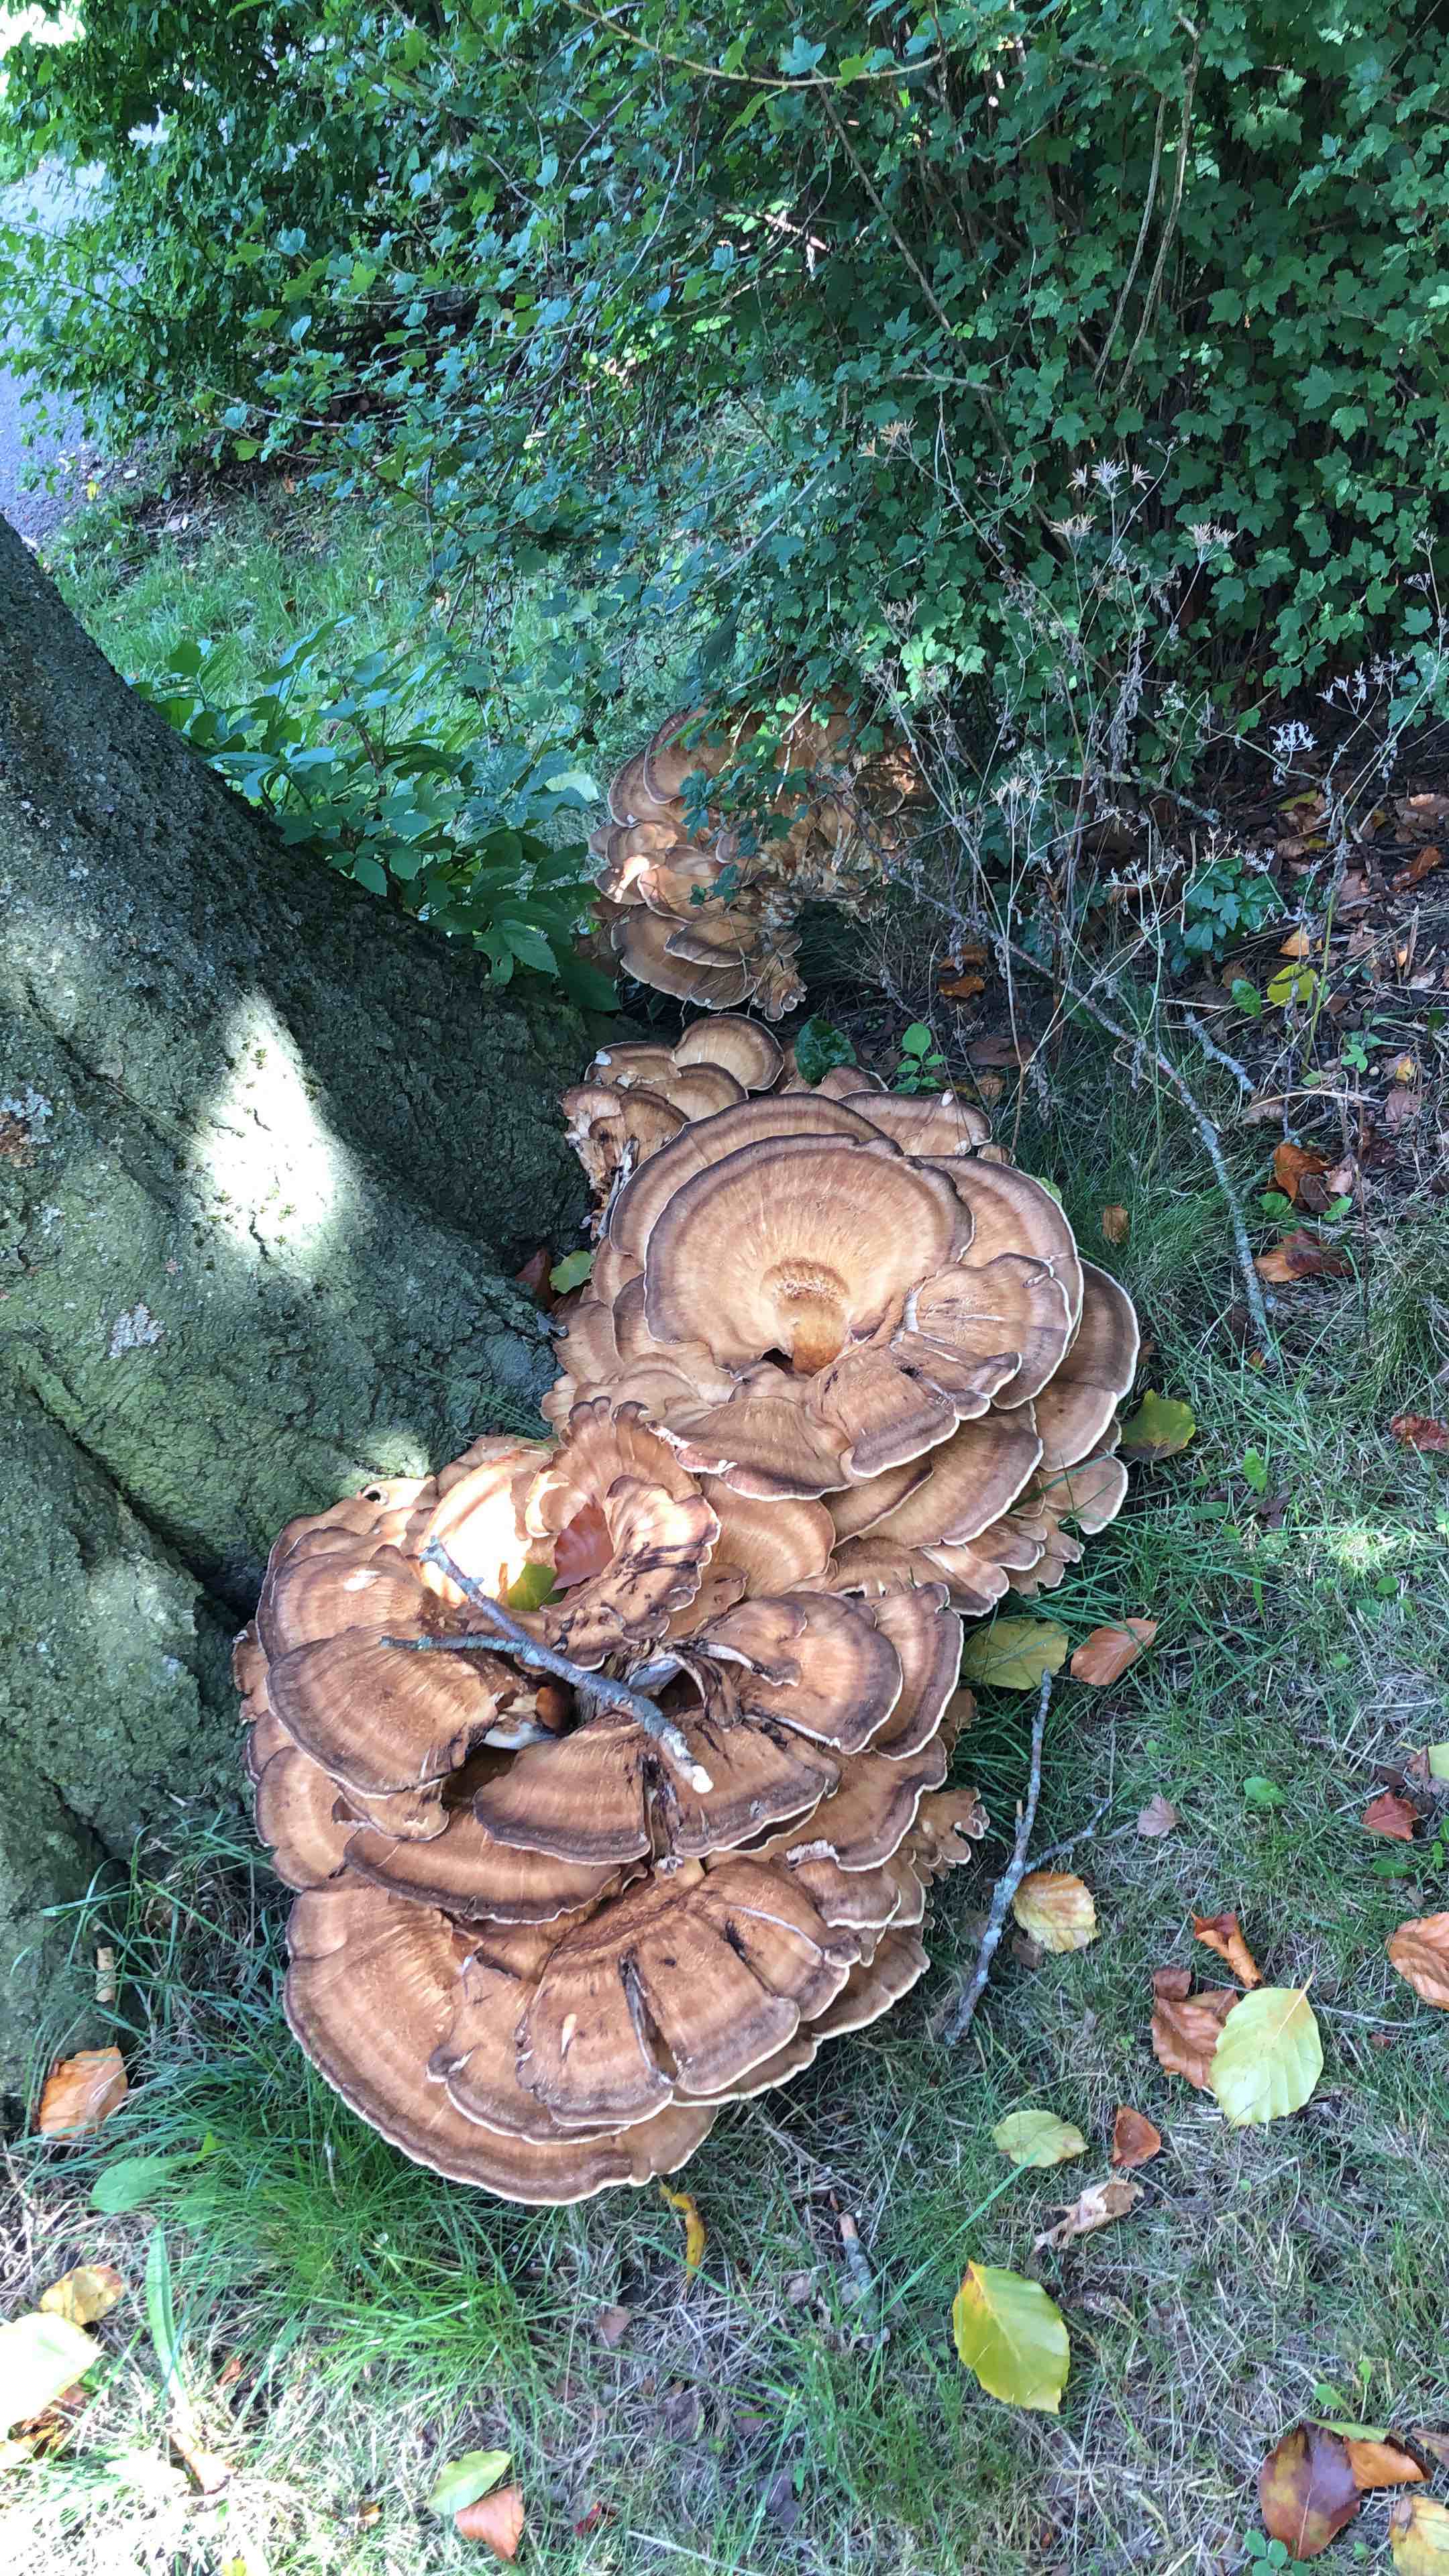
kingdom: Fungi
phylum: Basidiomycota
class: Agaricomycetes
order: Polyporales
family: Meripilaceae
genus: Meripilus
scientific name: Meripilus giganteus
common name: kæmpeporesvamp
